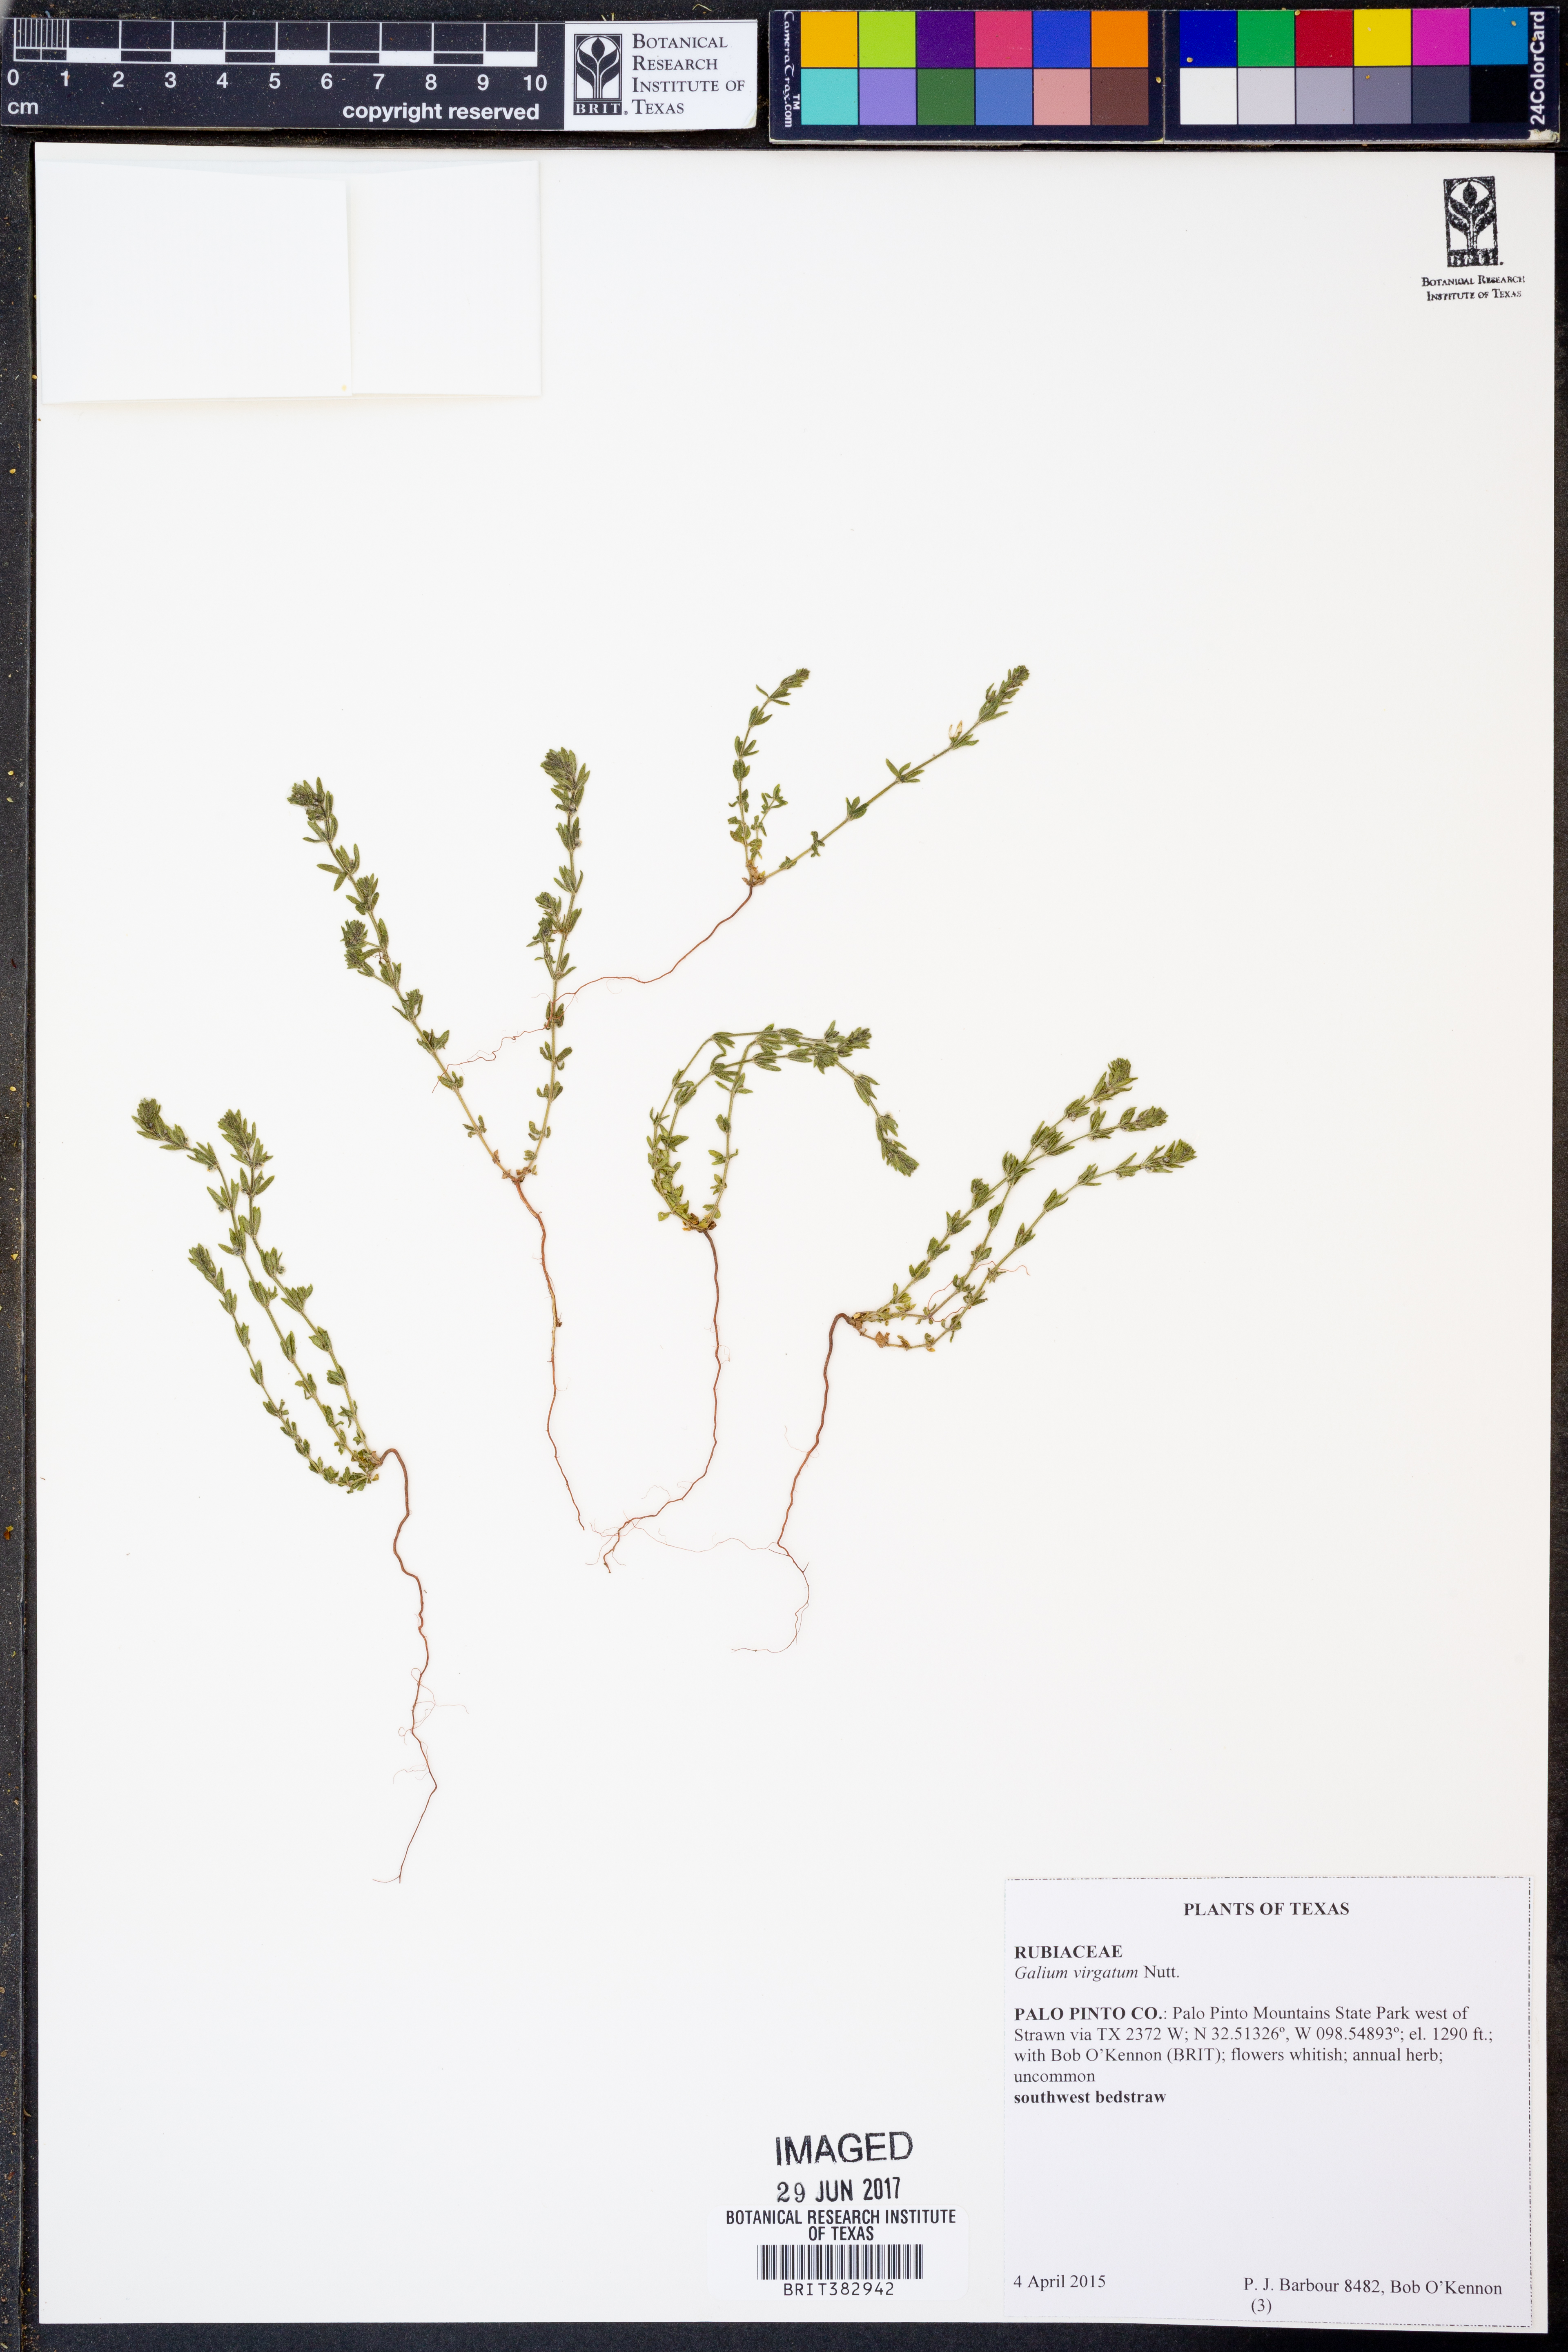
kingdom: Plantae
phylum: Tracheophyta
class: Magnoliopsida
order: Gentianales
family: Rubiaceae
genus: Galium
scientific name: Galium virgatum
